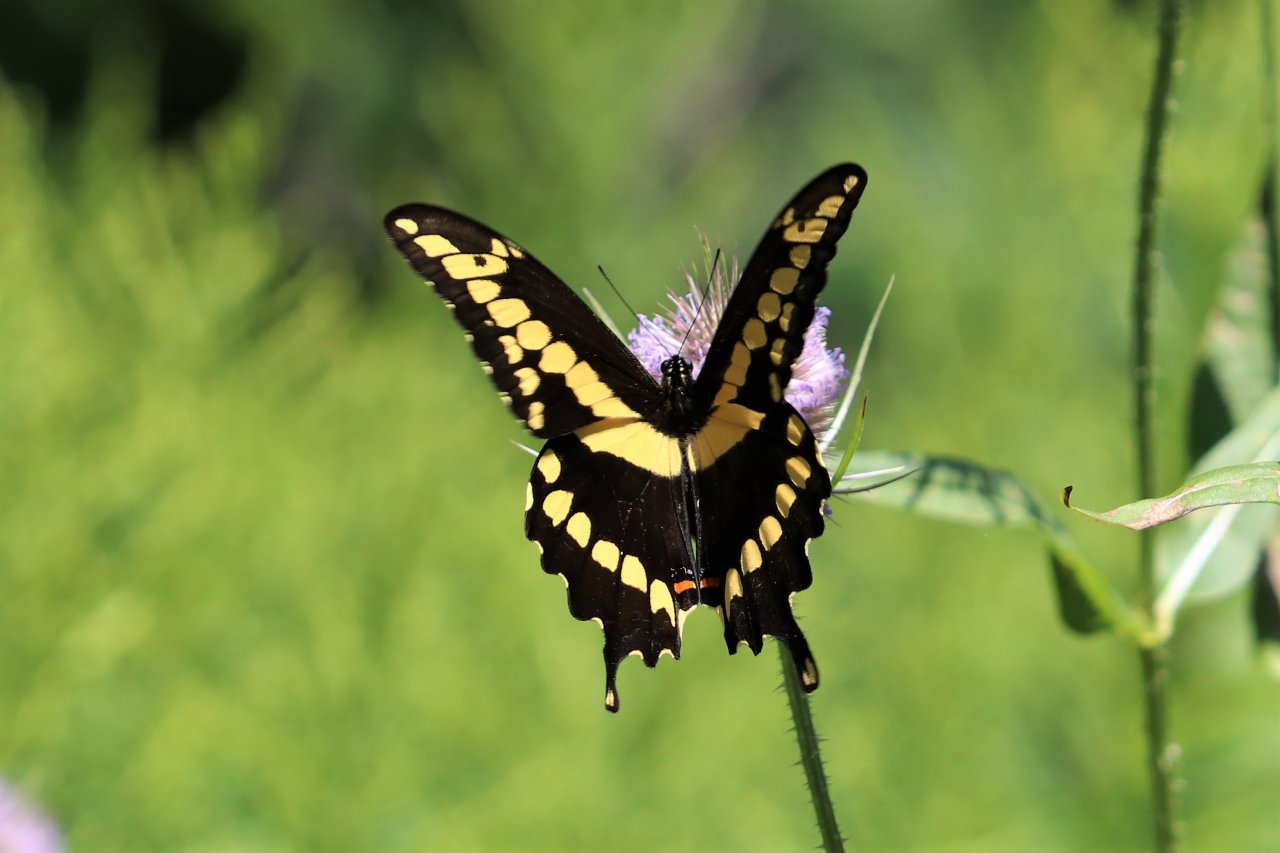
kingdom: Animalia
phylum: Arthropoda
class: Insecta
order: Lepidoptera
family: Papilionidae
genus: Papilio
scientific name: Papilio cresphontes
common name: Eastern Giant Swallowtail
